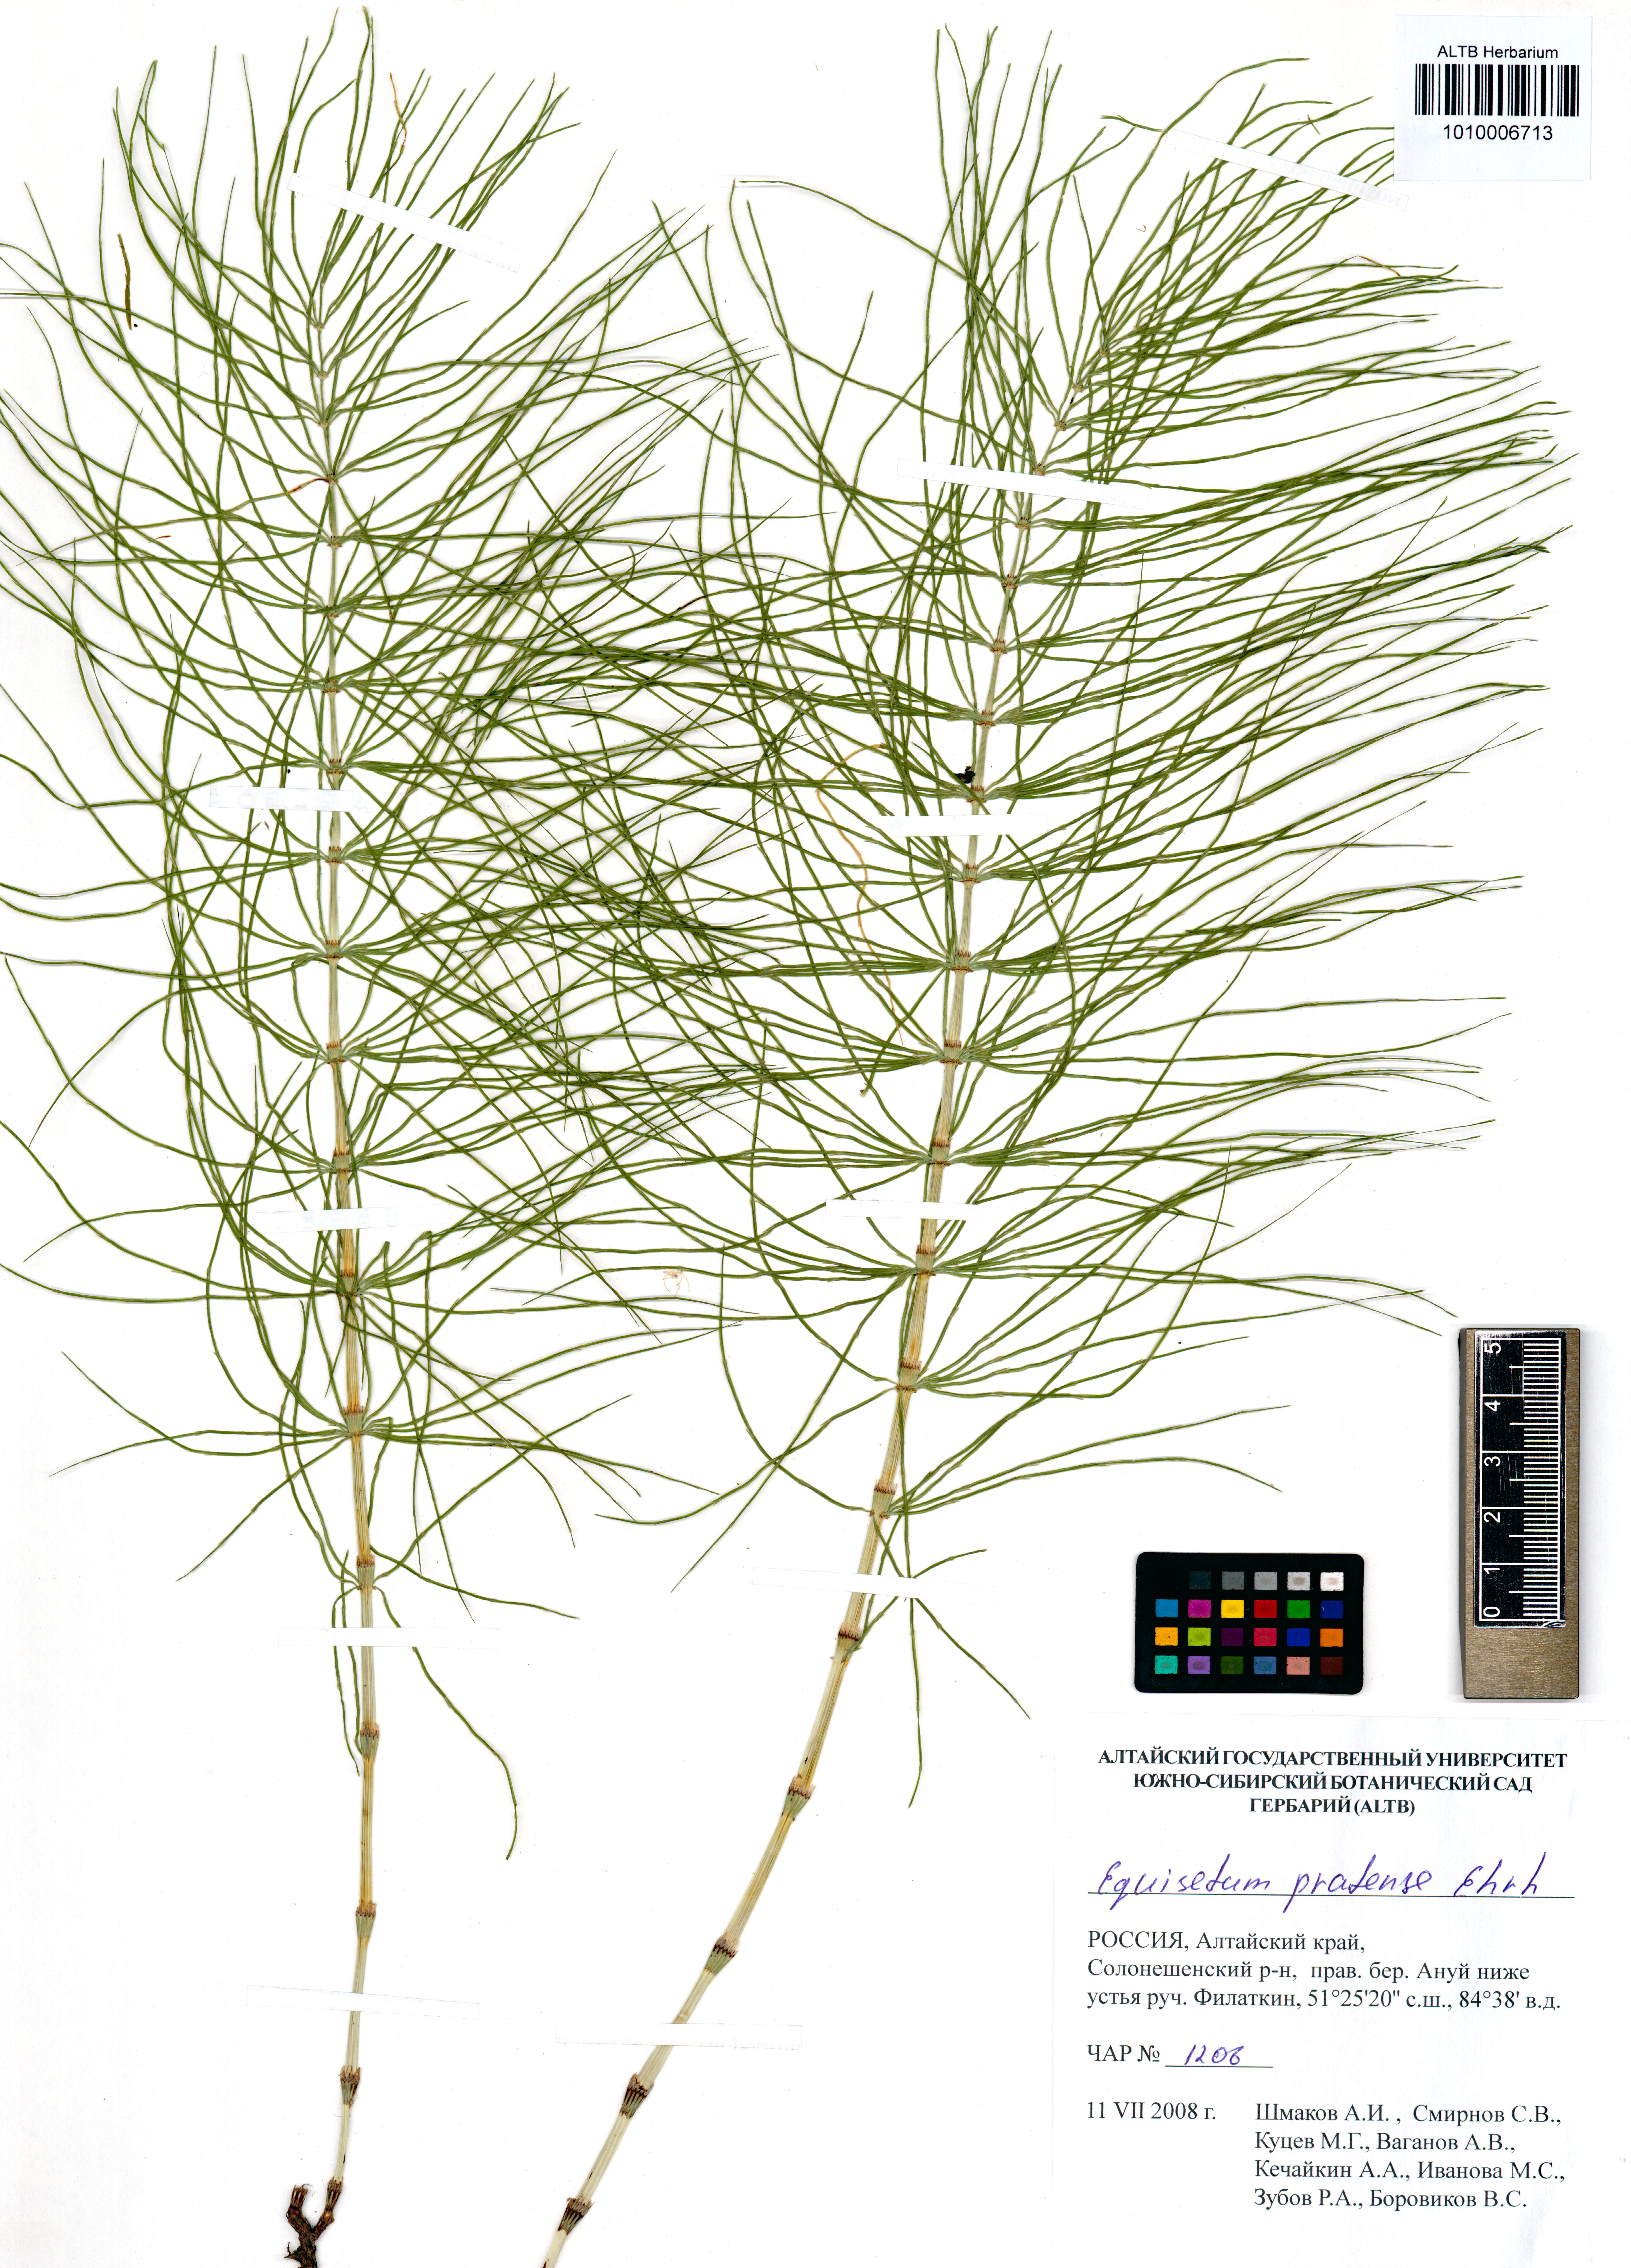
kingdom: Plantae
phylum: Tracheophyta
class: Polypodiopsida
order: Equisetales
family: Equisetaceae
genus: Equisetum
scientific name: Equisetum pratense
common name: Meadow horsetail
